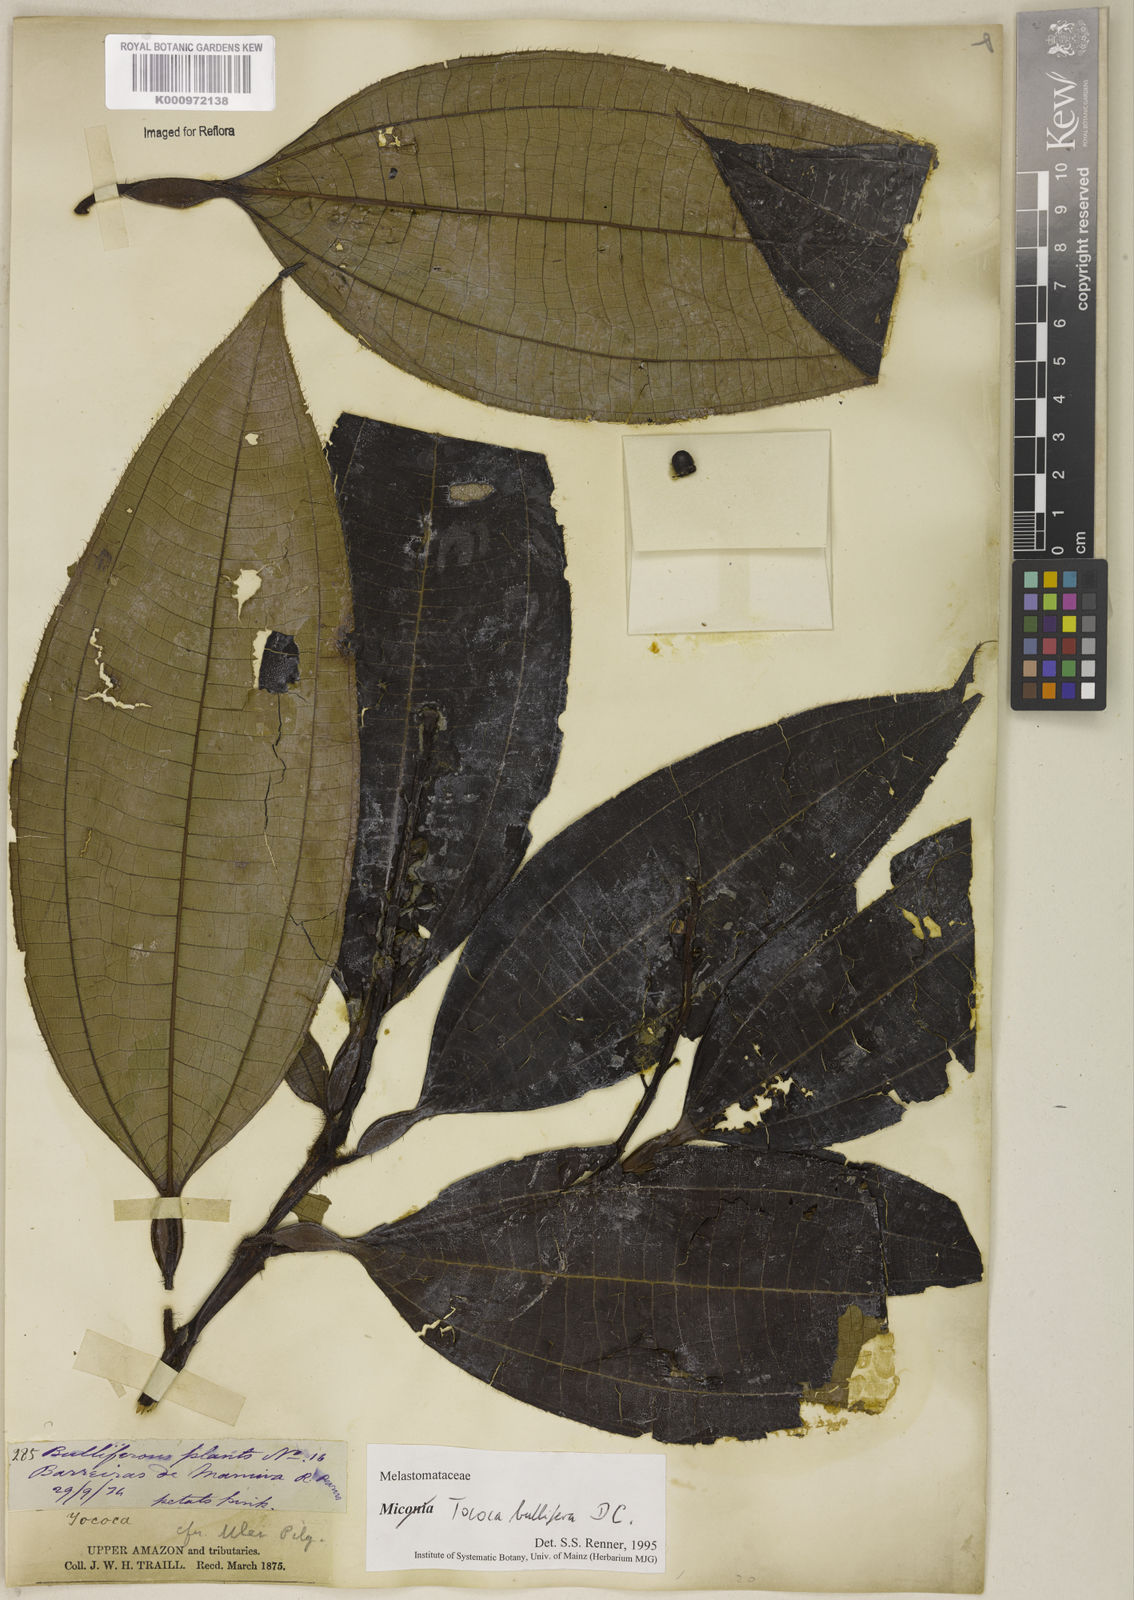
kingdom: Plantae
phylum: Tracheophyta
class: Magnoliopsida
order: Myrtales
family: Melastomataceae
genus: Miconia
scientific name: Miconia bullifera
